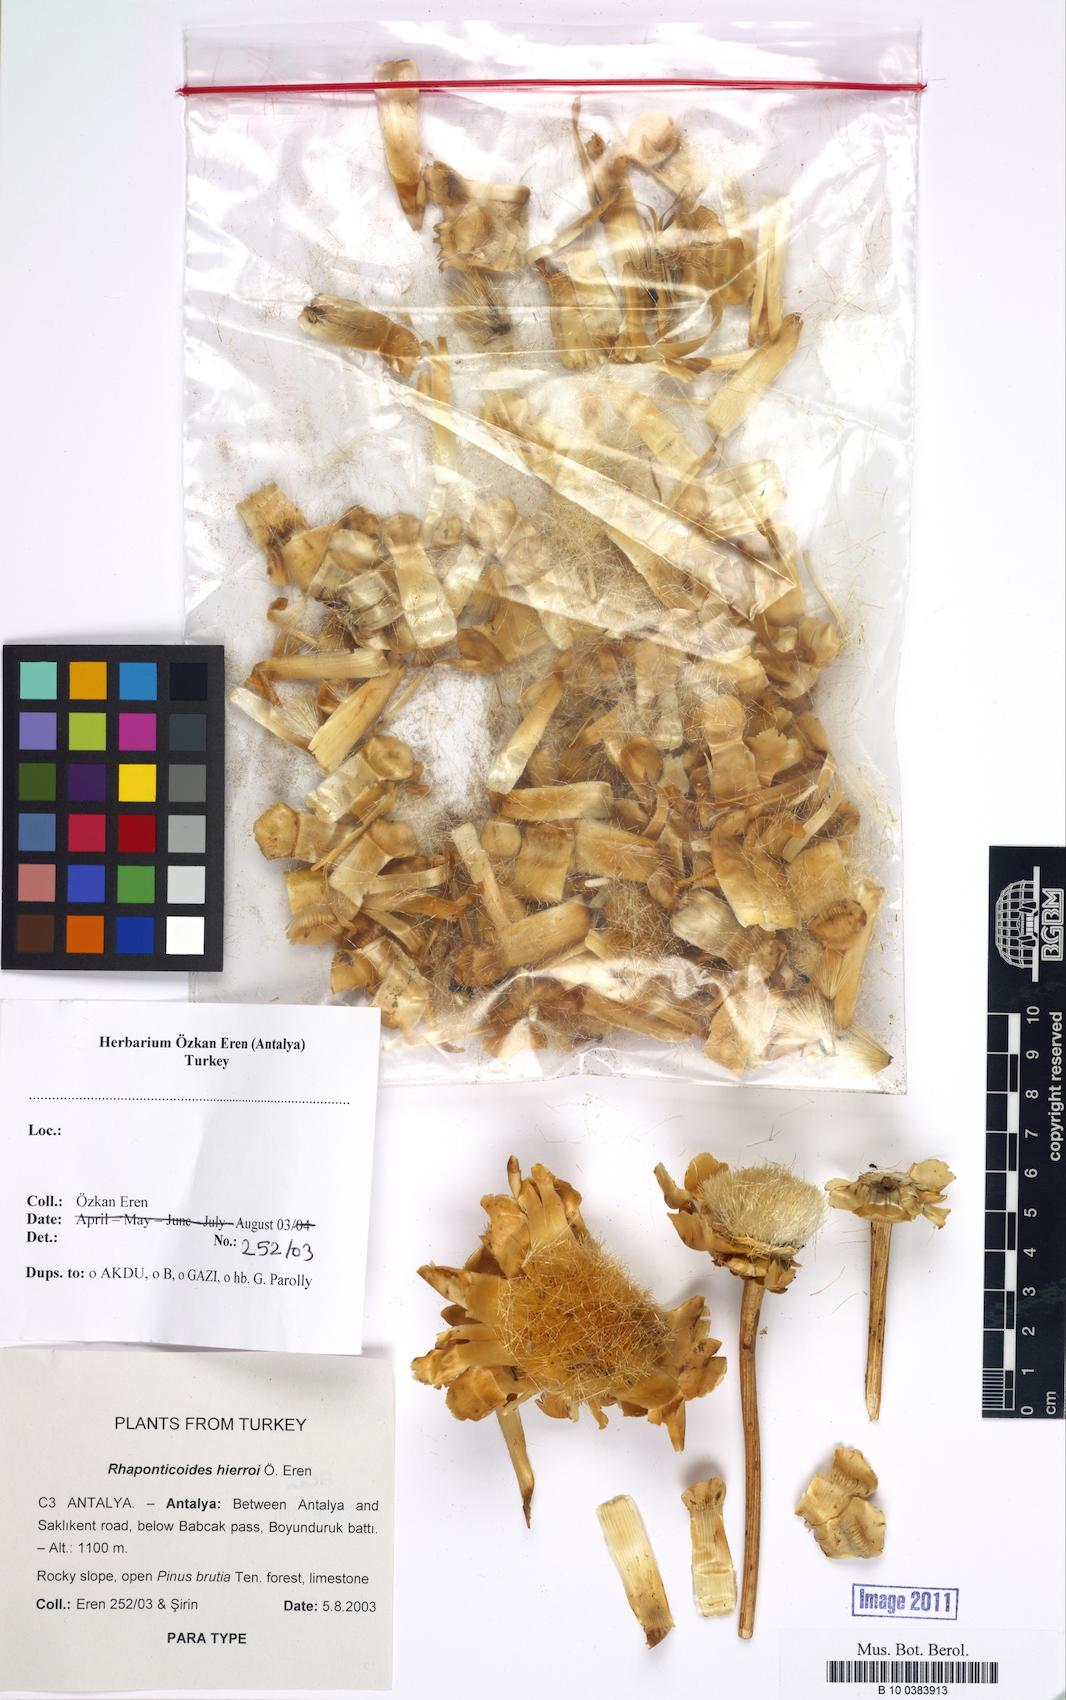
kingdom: Plantae
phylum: Tracheophyta
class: Magnoliopsida
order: Asterales
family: Asteraceae
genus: Rhaponticoides
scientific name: Rhaponticoides hierroi
